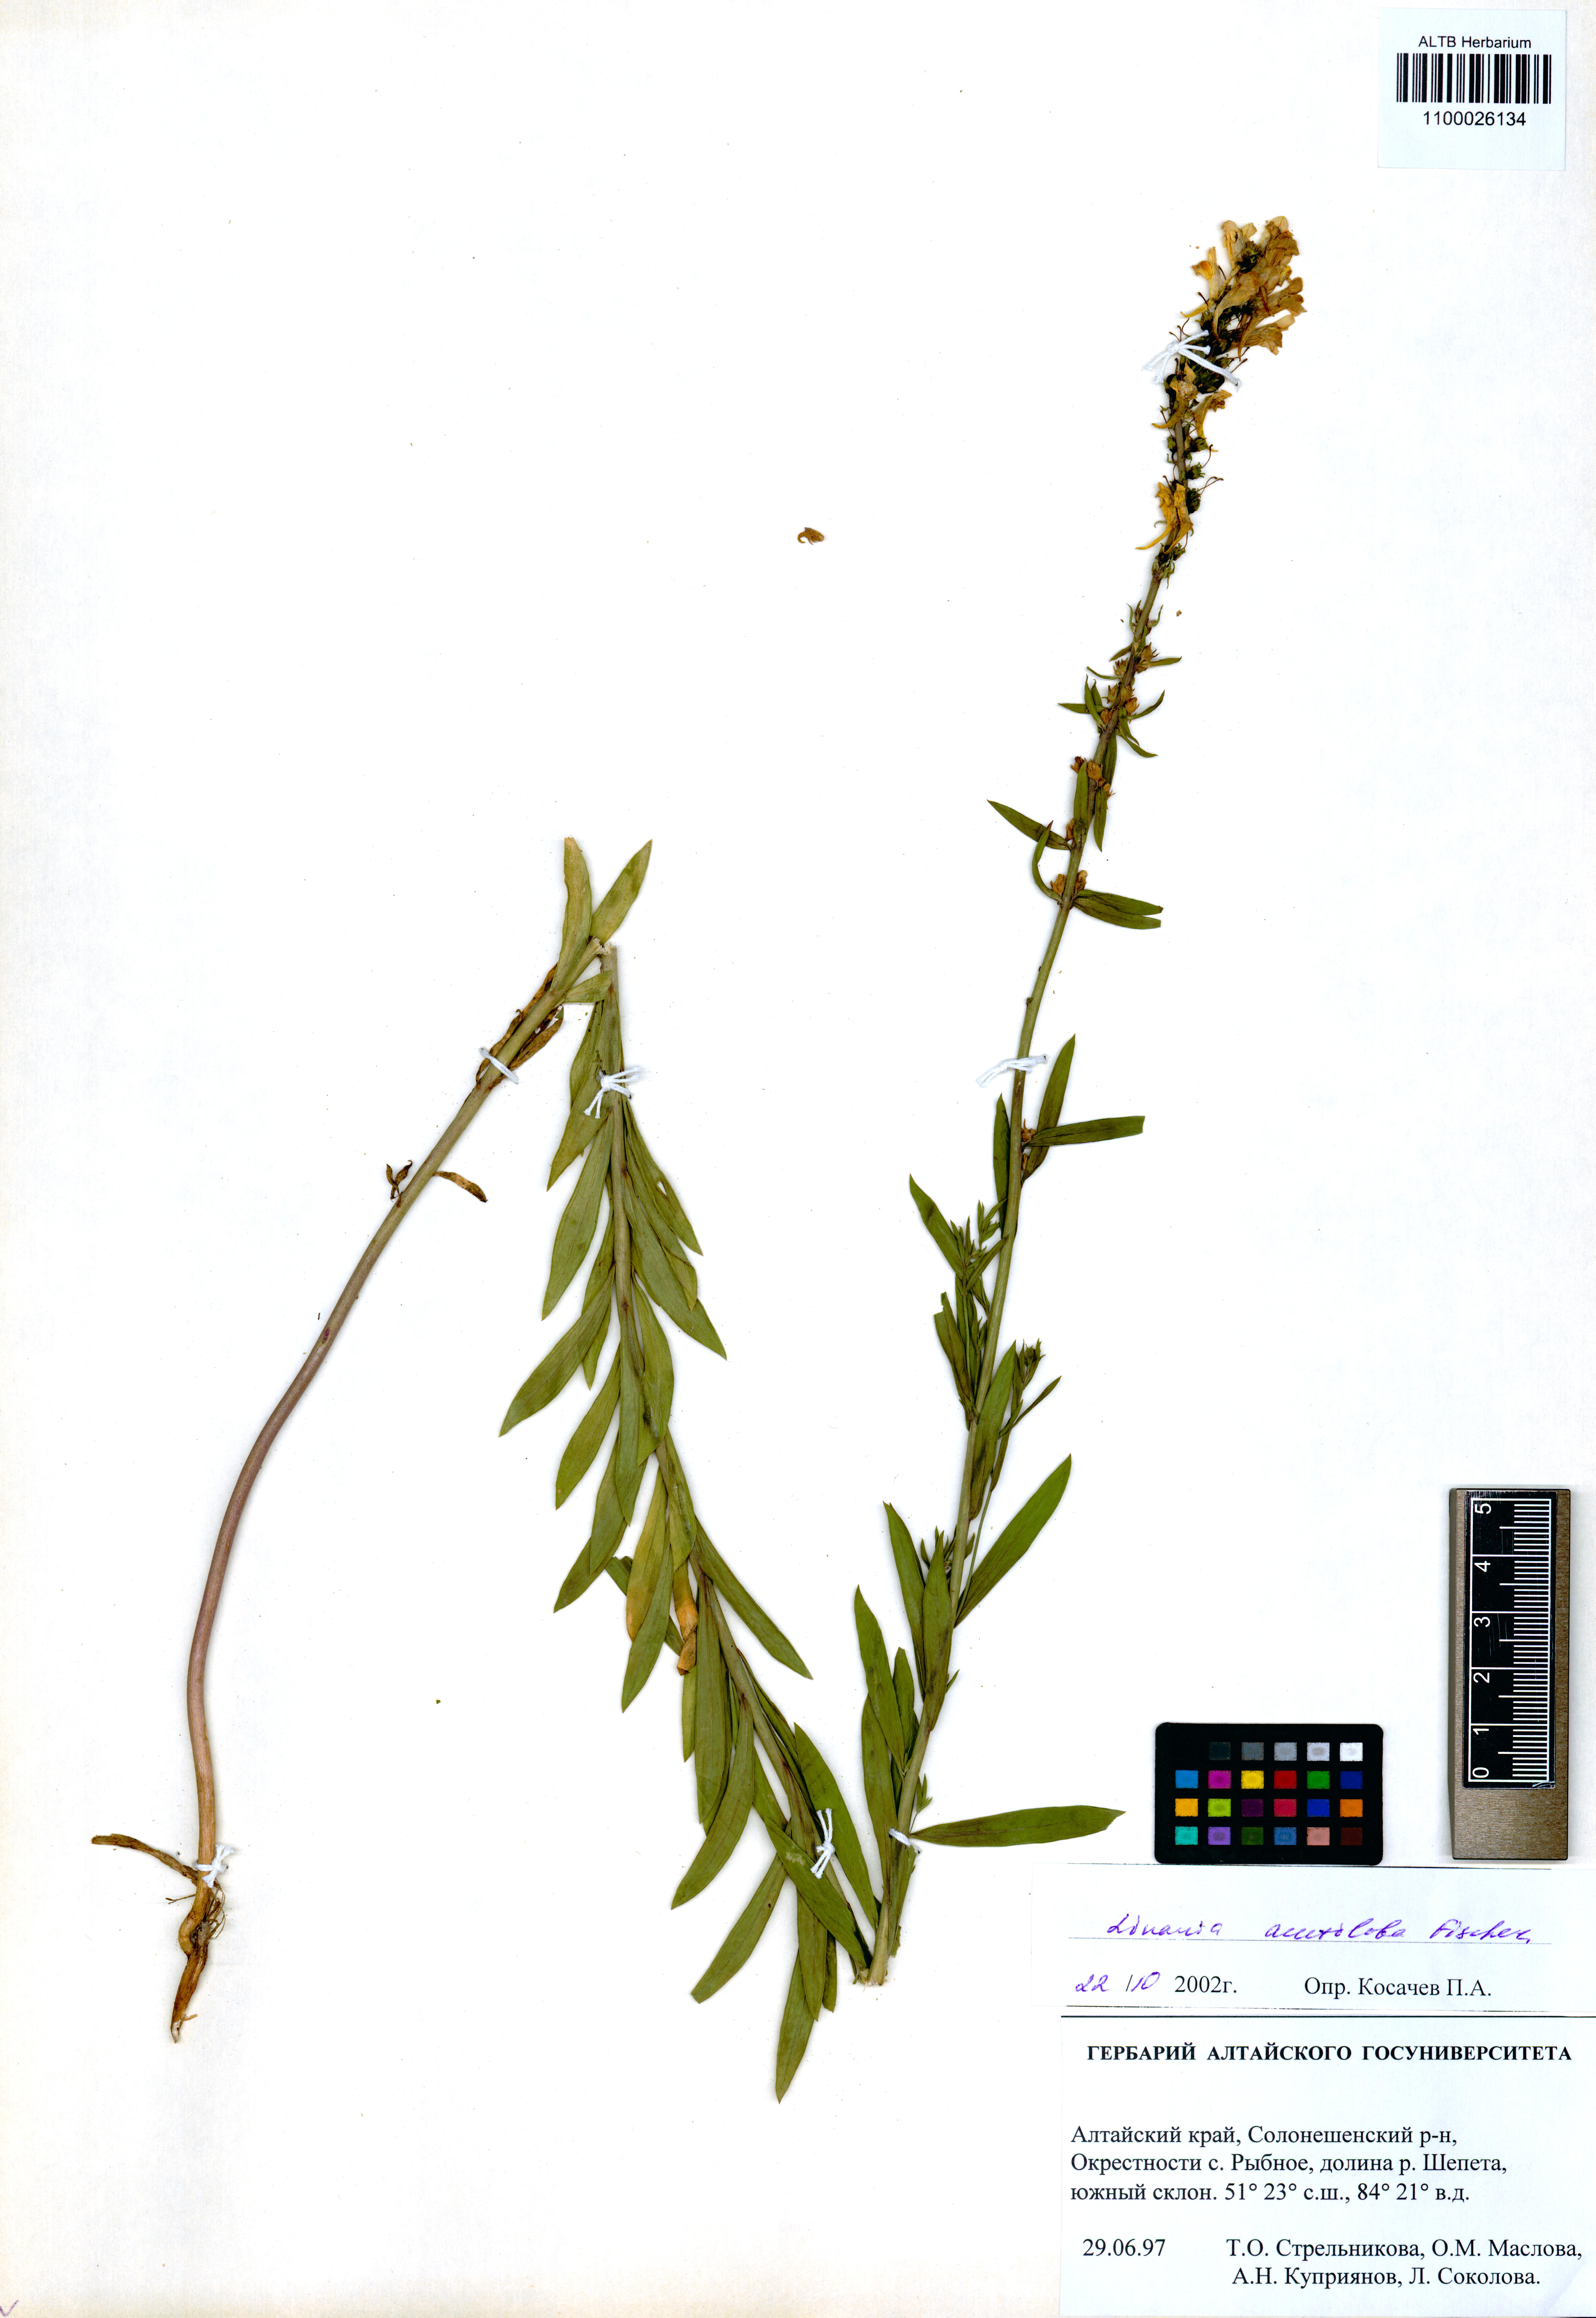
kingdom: Plantae
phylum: Tracheophyta
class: Magnoliopsida
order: Lamiales
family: Plantaginaceae
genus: Linaria
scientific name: Linaria acutiloba
